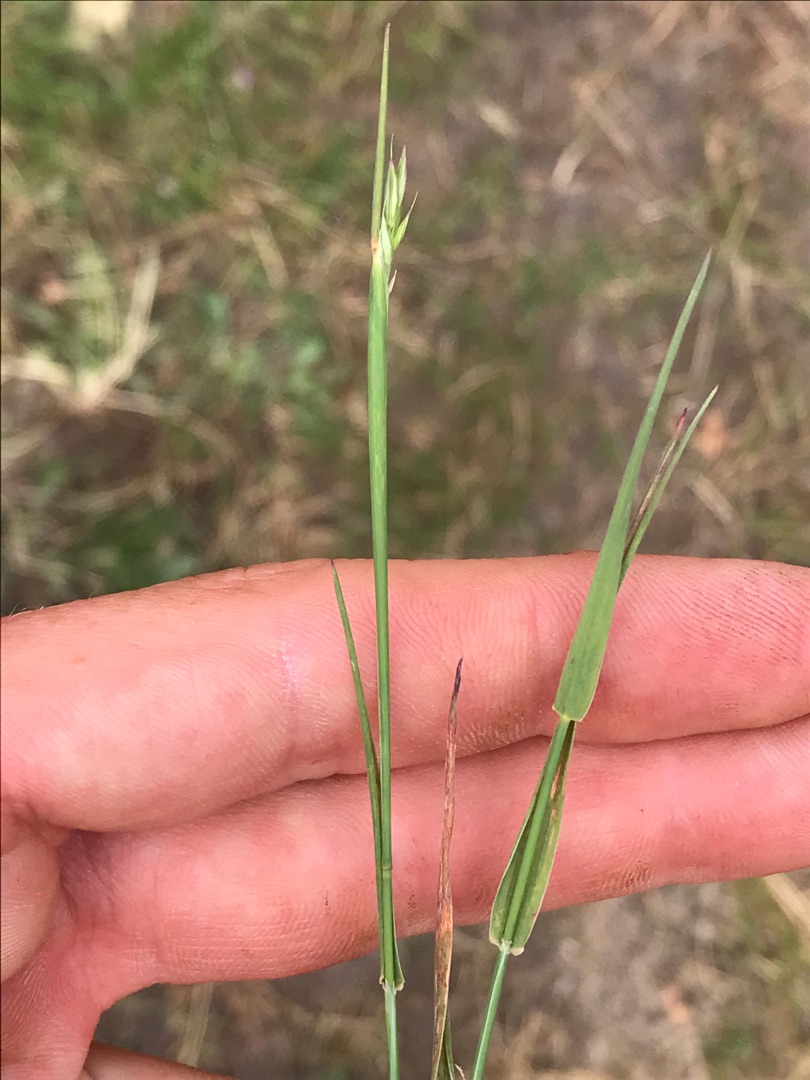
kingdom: Plantae
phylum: Tracheophyta
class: Liliopsida
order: Poales
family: Poaceae
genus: Holcus
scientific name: Holcus mollis
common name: Krybende hestegræs
